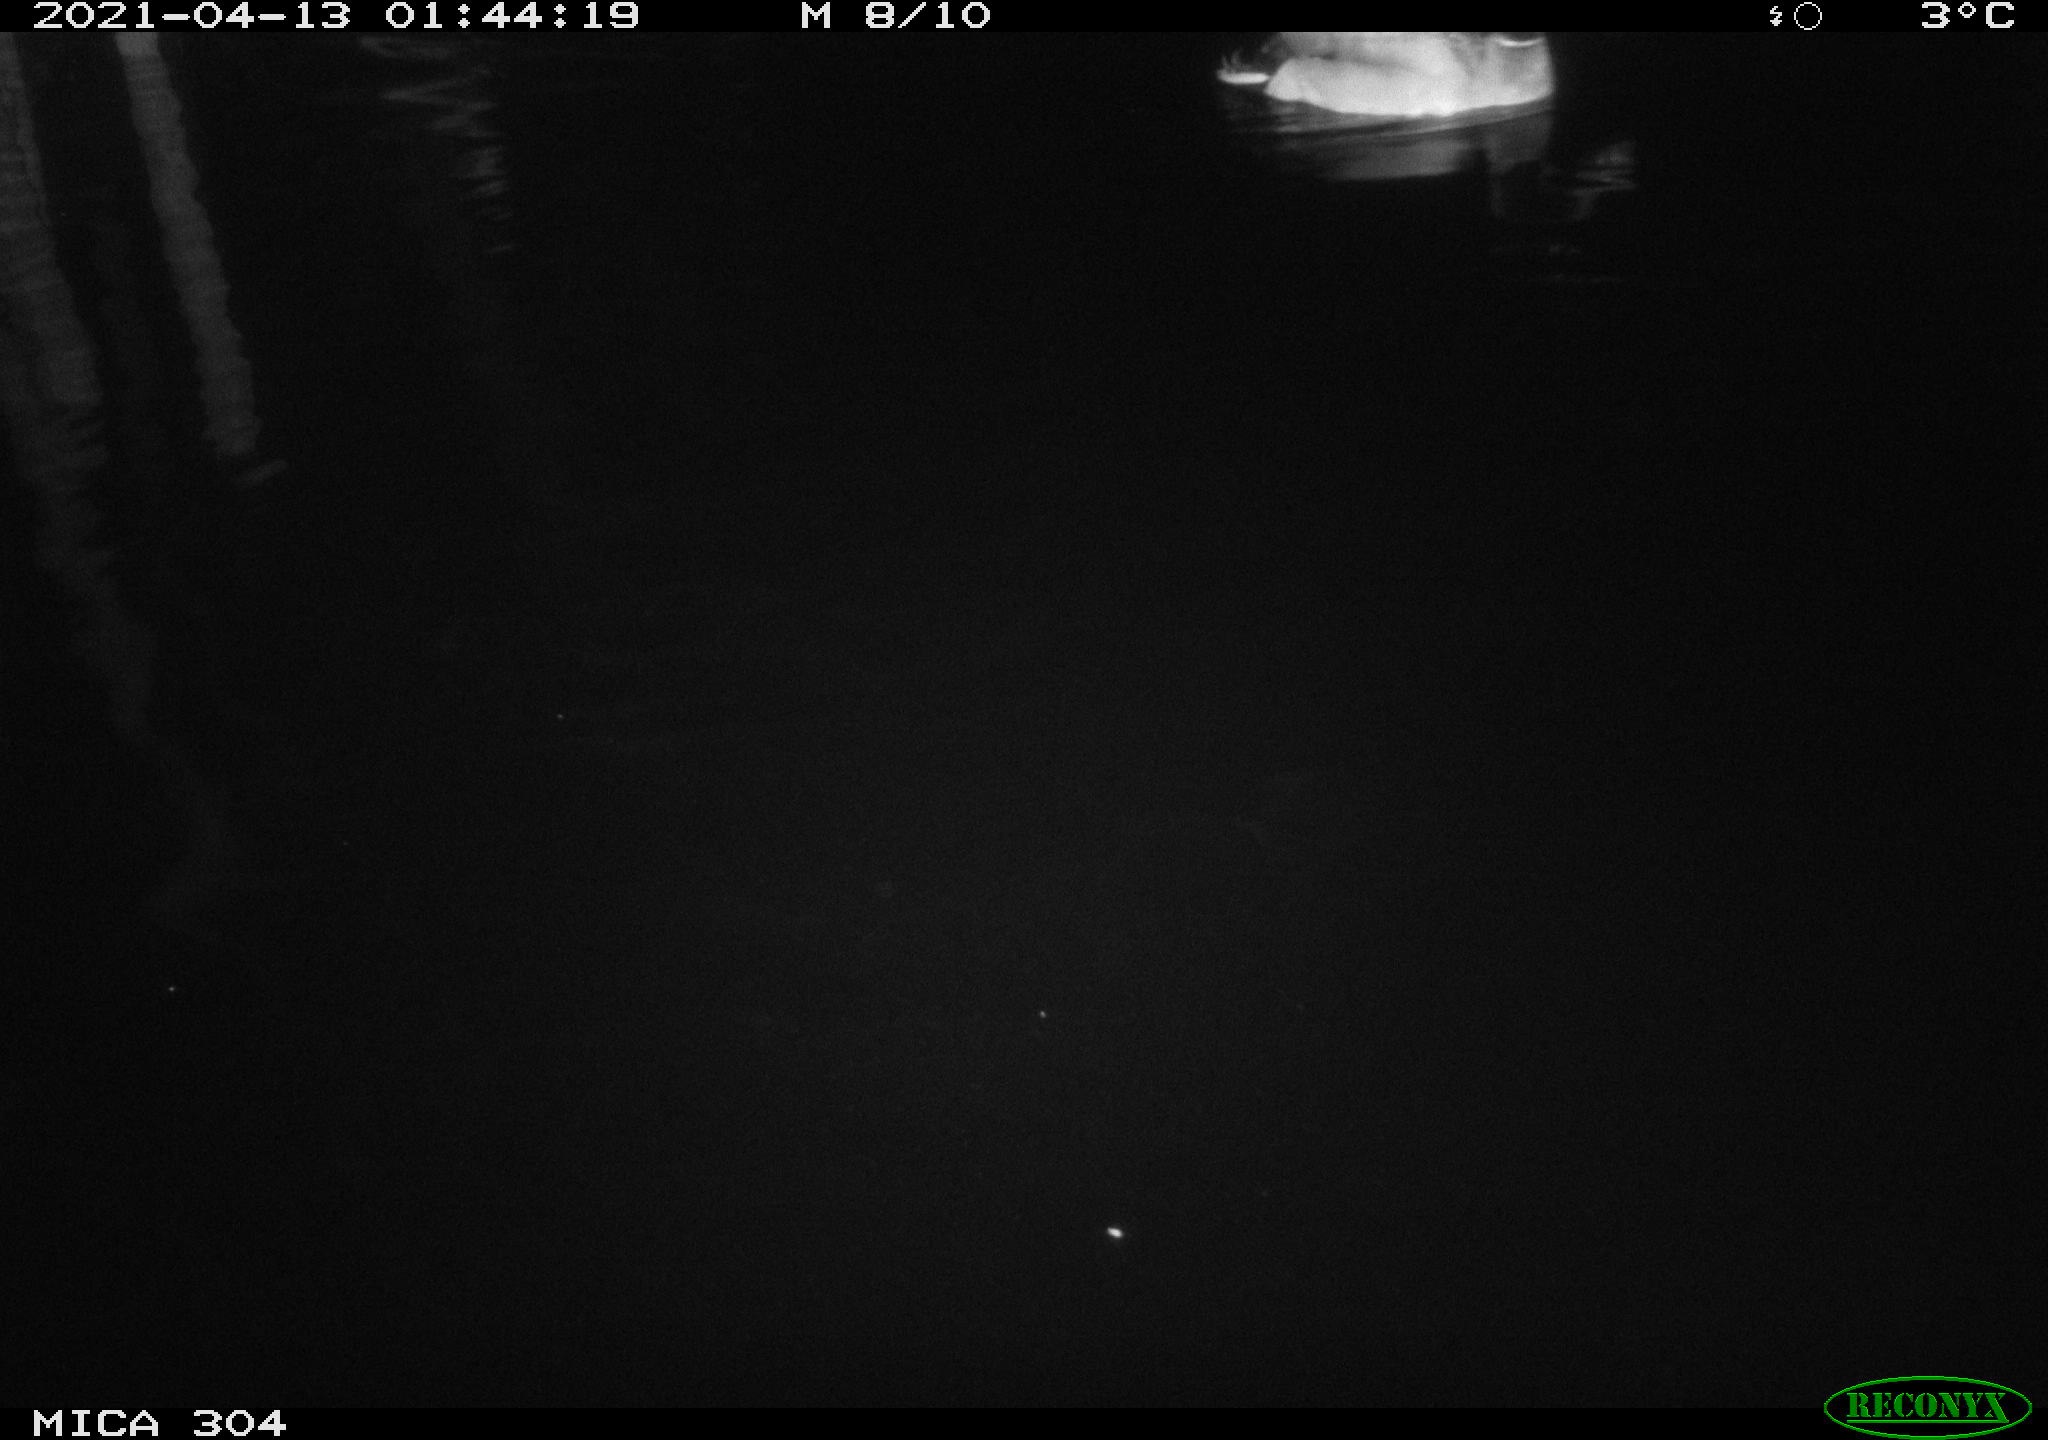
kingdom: Animalia
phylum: Chordata
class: Aves
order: Anseriformes
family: Anatidae
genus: Anas
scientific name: Anas
